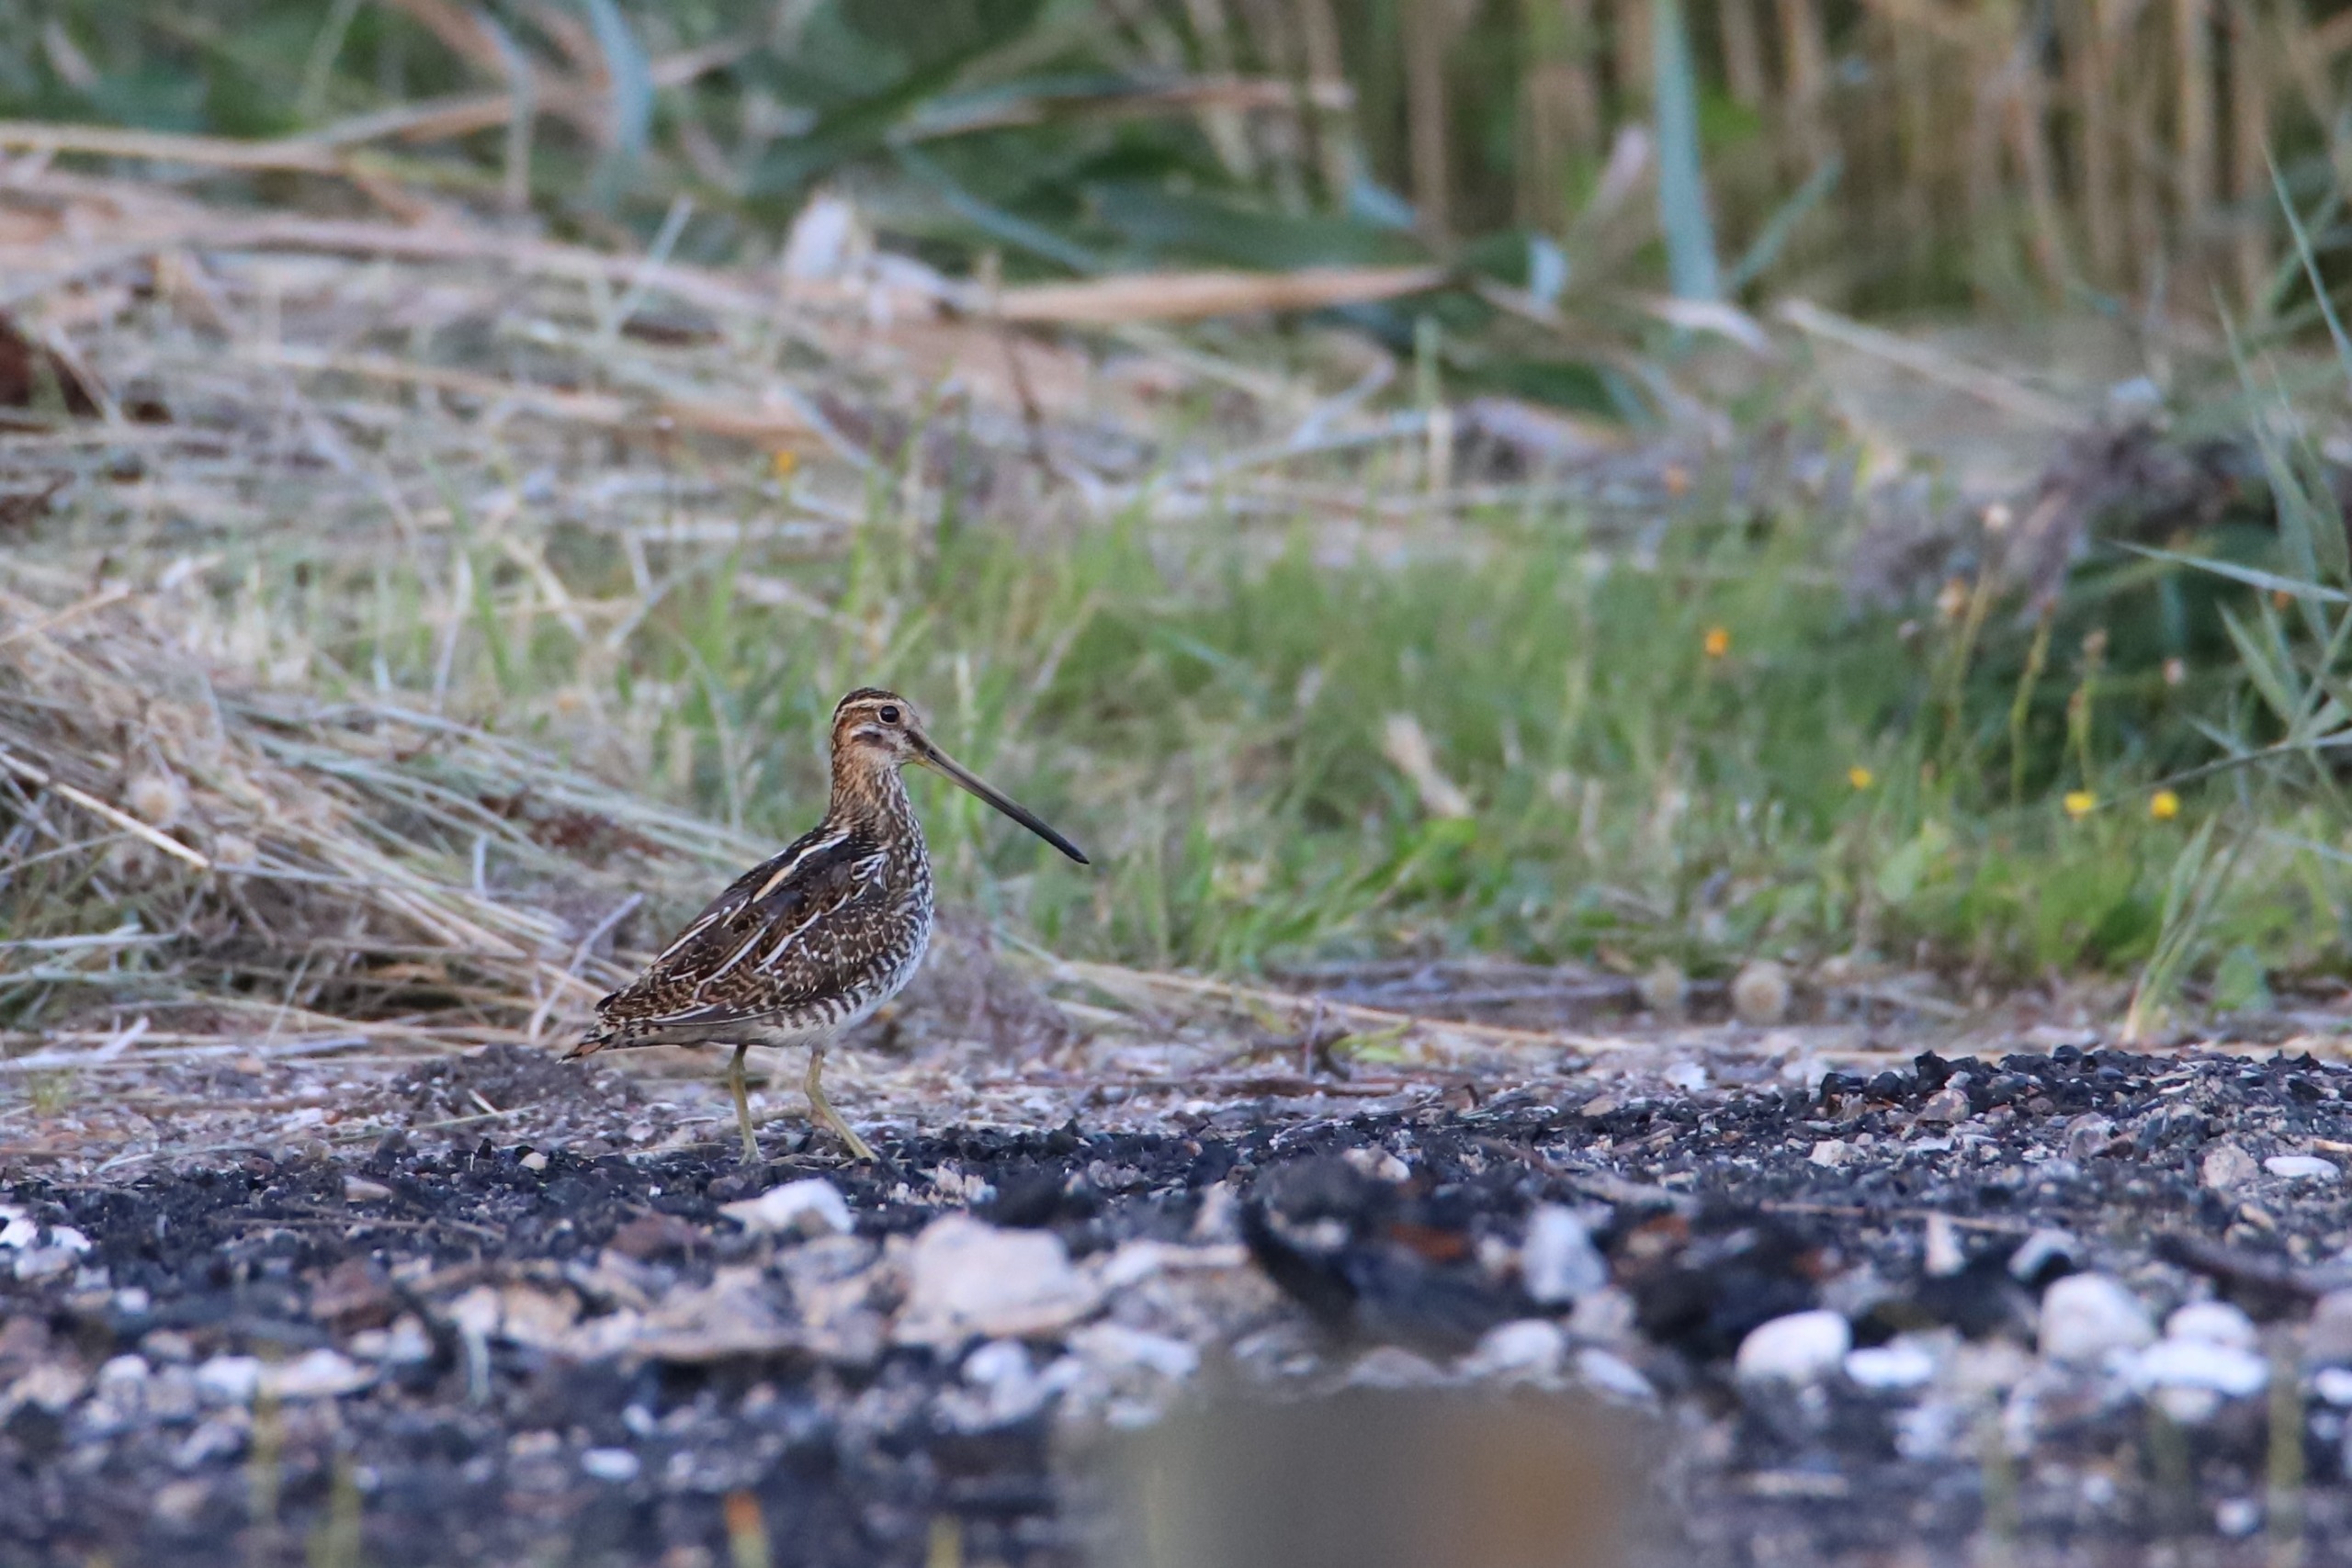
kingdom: Animalia
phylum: Chordata
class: Aves
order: Charadriiformes
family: Scolopacidae
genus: Gallinago
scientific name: Gallinago gallinago
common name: Dobbeltbekkasin
